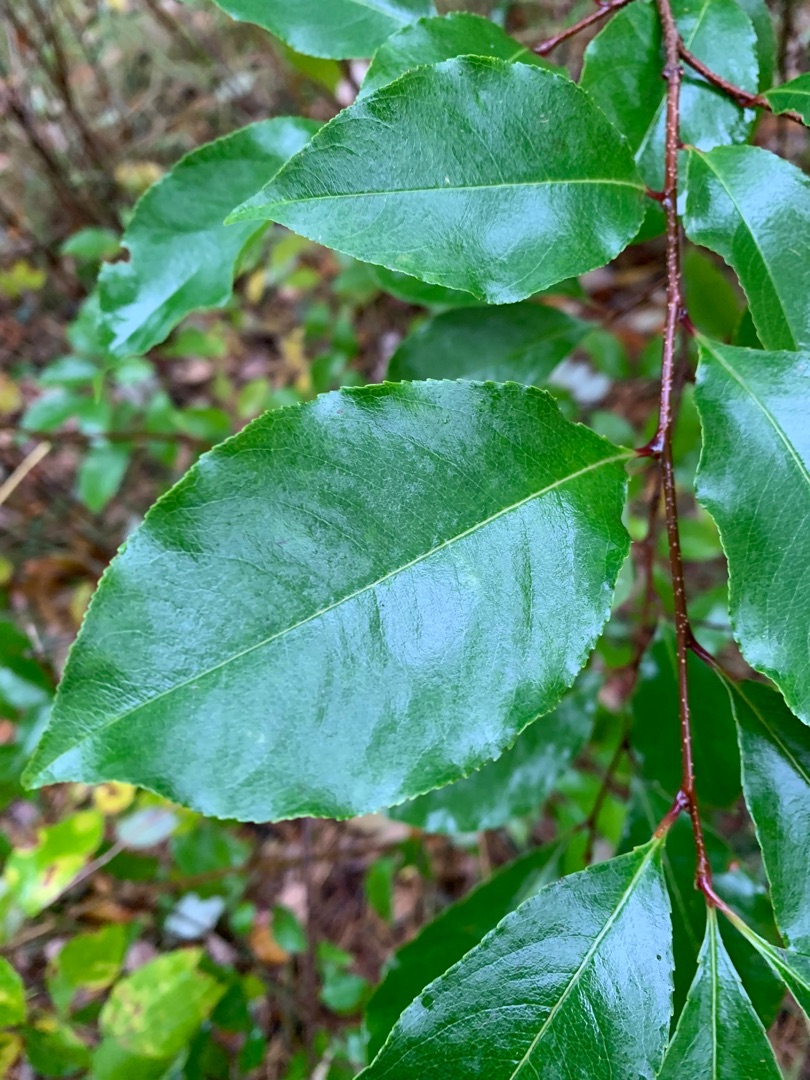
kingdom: Plantae
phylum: Tracheophyta
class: Magnoliopsida
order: Rosales
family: Rosaceae
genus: Prunus
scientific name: Prunus serotina
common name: Glansbladet hæg
